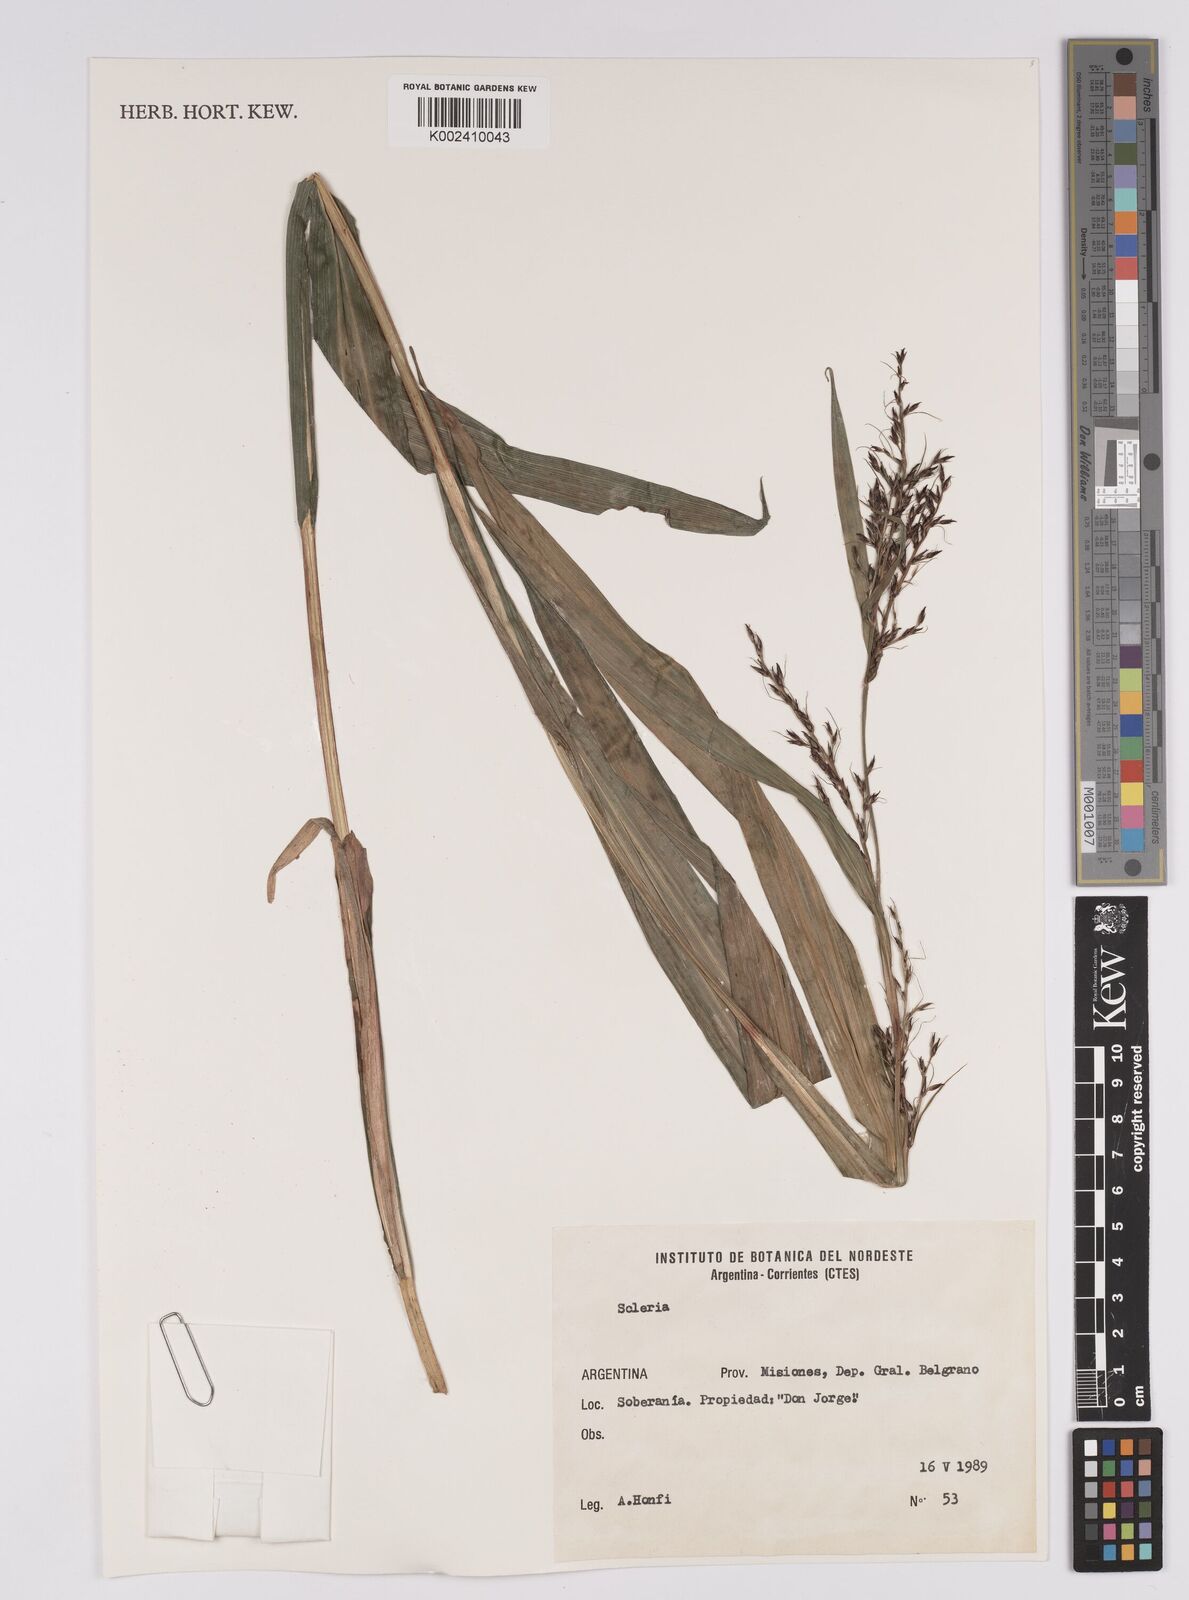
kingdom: Plantae
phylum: Tracheophyta
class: Liliopsida
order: Poales
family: Cyperaceae
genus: Scleria
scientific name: Scleria
